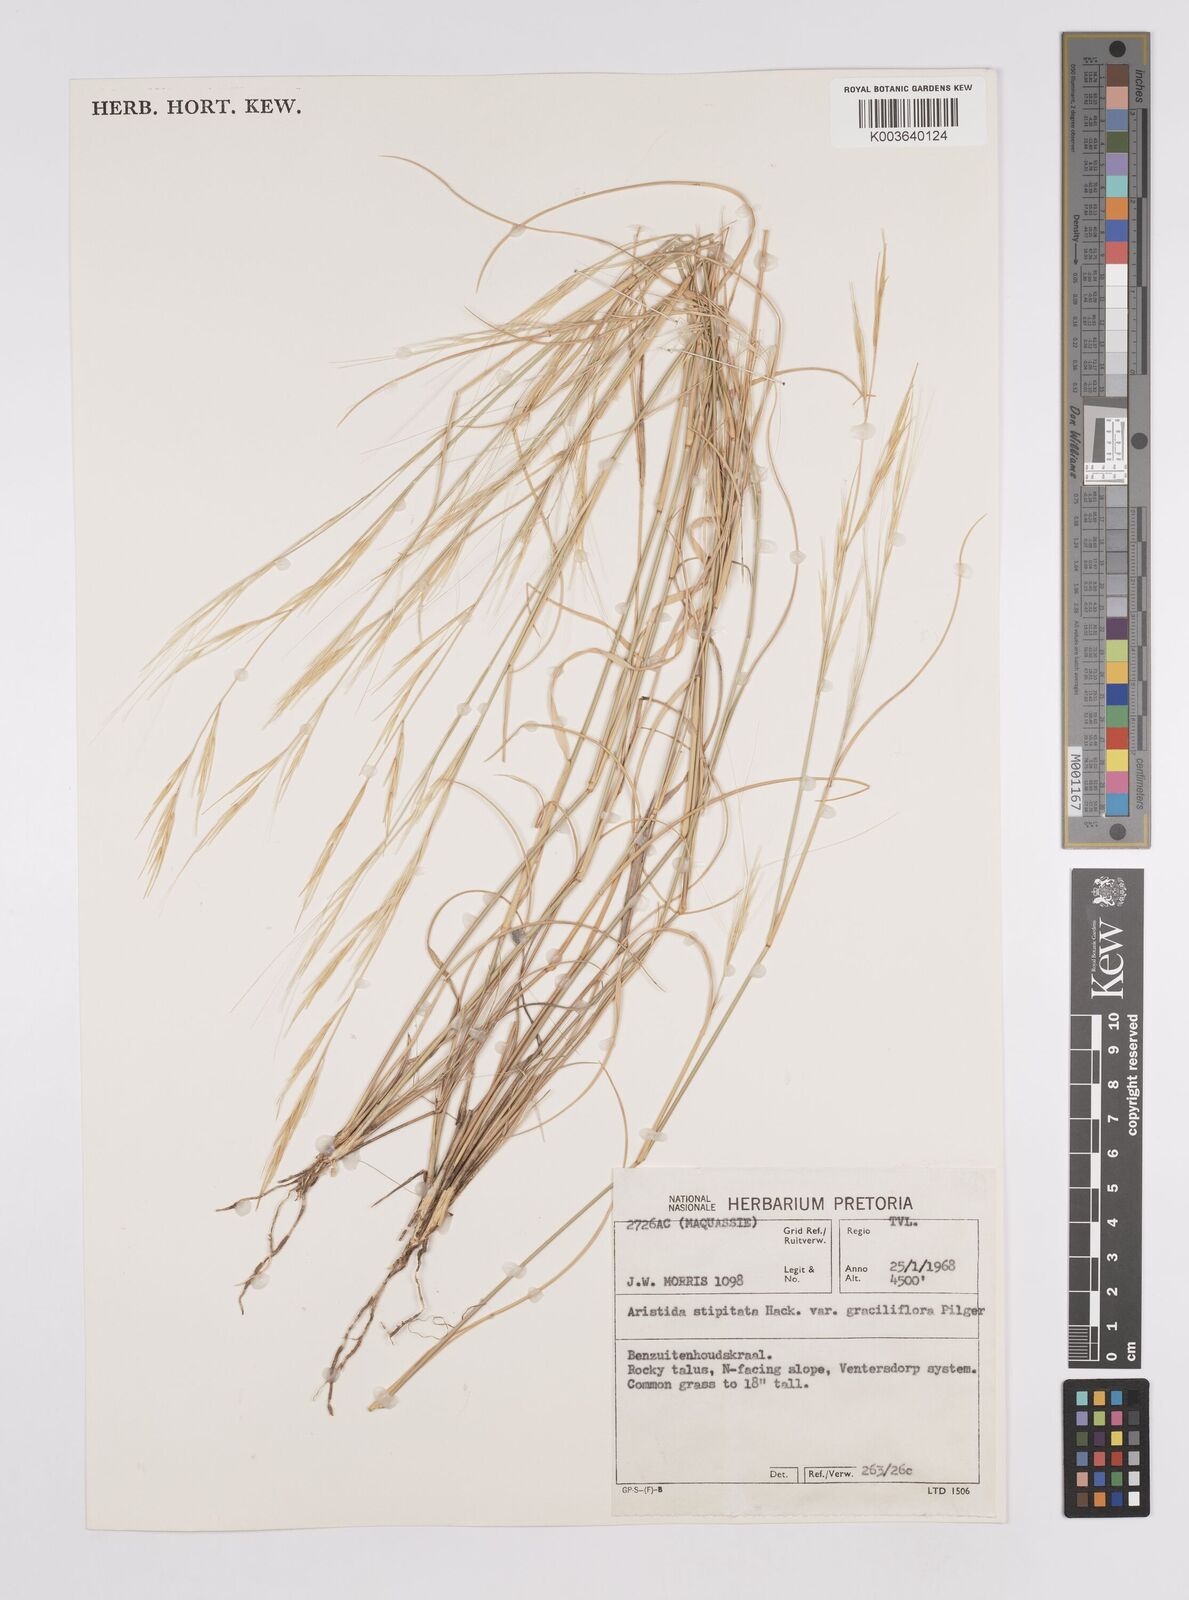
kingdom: Plantae
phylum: Tracheophyta
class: Liliopsida
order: Poales
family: Poaceae
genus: Aristida
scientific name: Aristida stipitata
